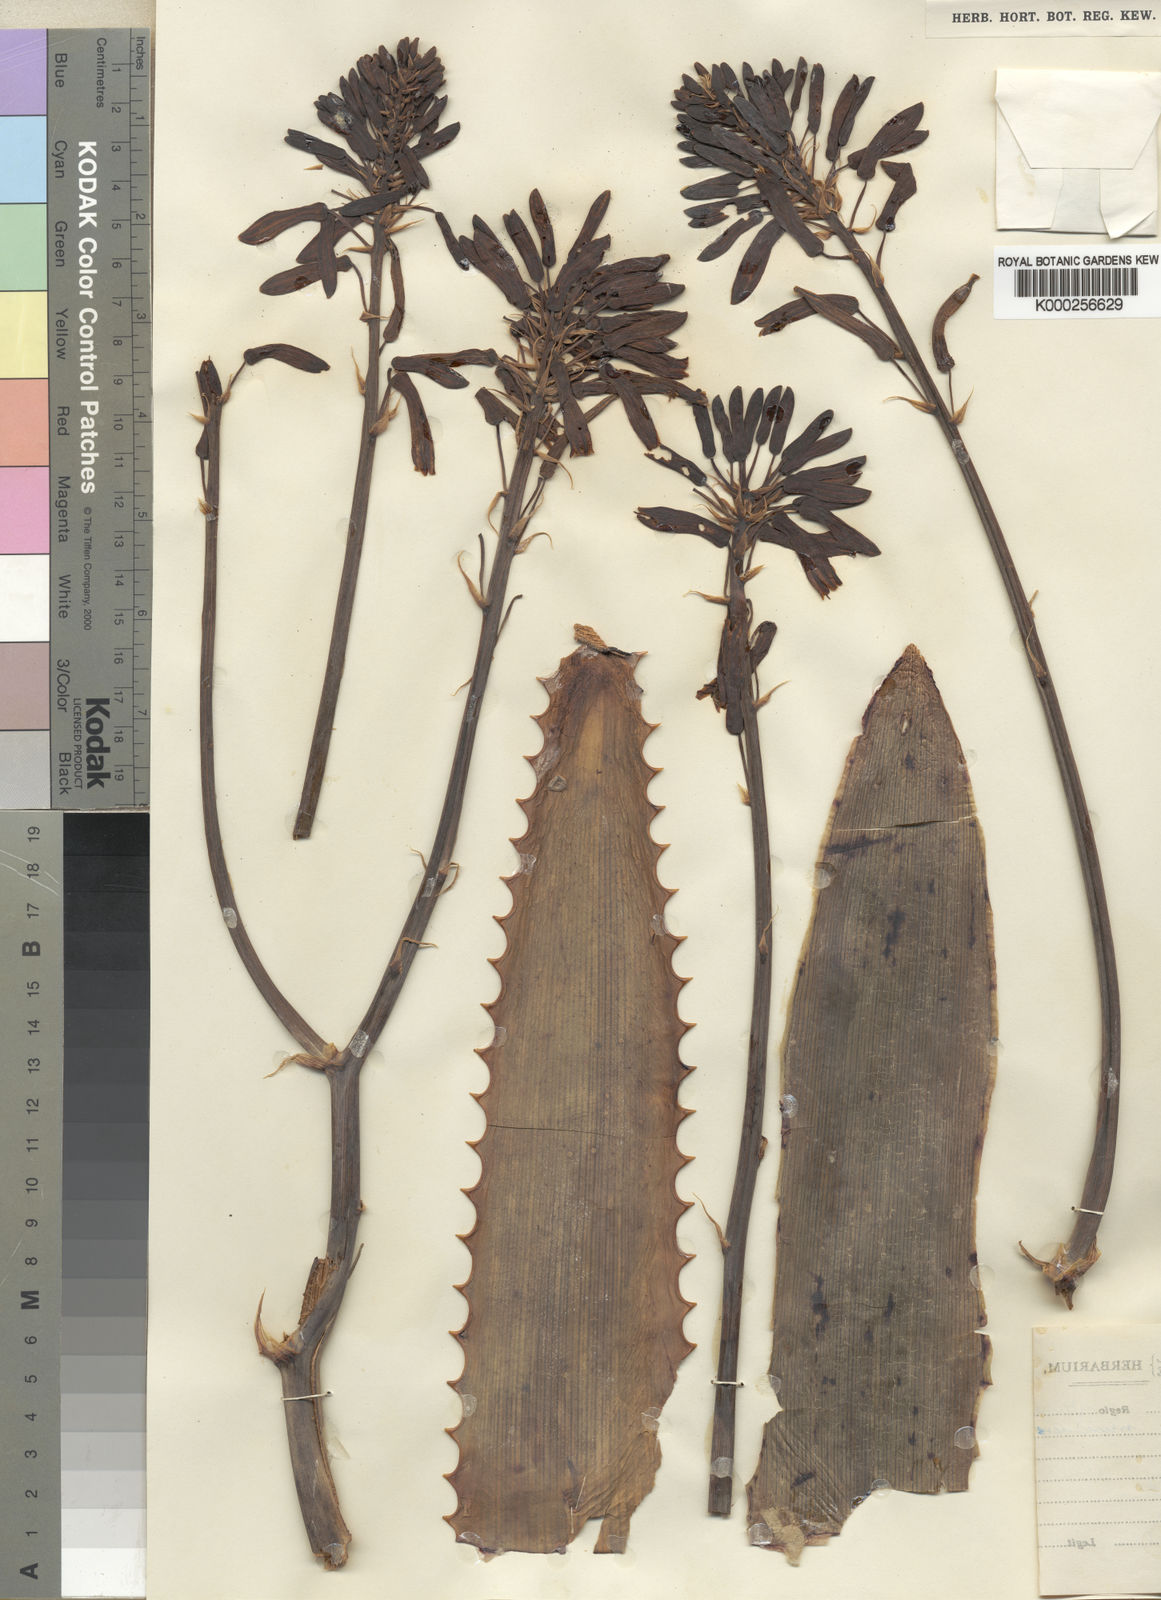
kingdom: Plantae
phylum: Tracheophyta
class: Liliopsida
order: Asparagales
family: Asphodelaceae
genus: Aloe
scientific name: Aloe mudenensis
